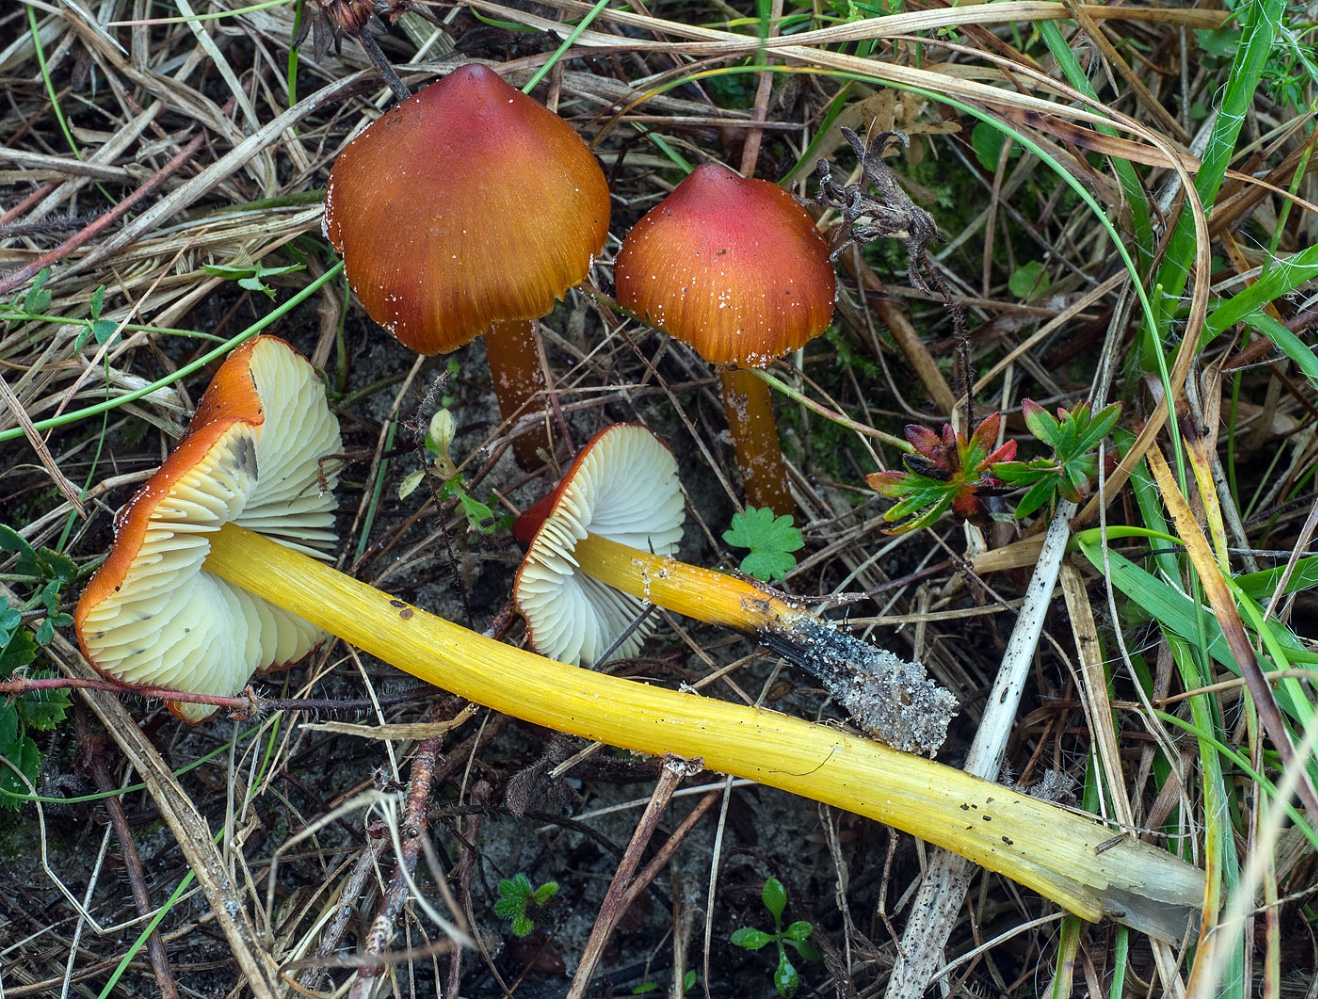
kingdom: Fungi
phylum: Basidiomycota
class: Agaricomycetes
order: Agaricales
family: Hygrophoraceae
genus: Hygrocybe
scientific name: Hygrocybe conica
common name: kegle-vokshat
